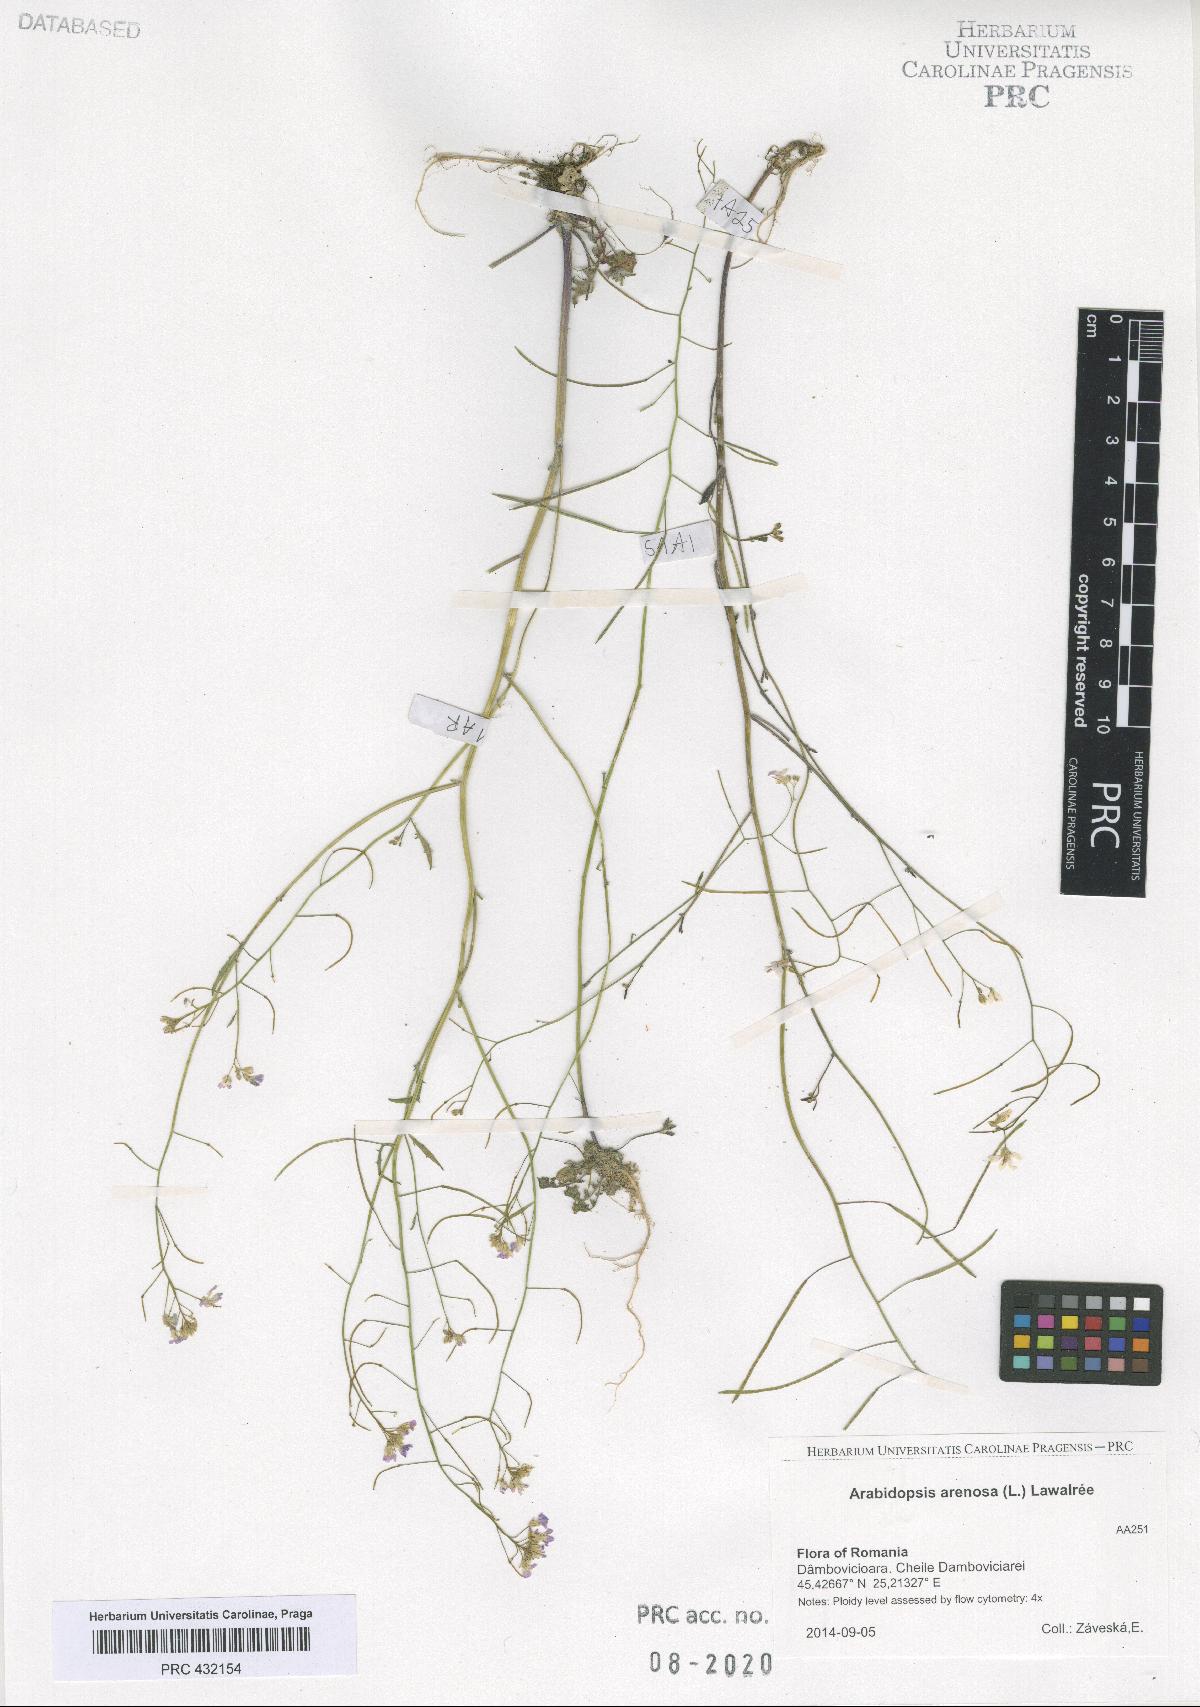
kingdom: Plantae
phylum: Tracheophyta
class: Magnoliopsida
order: Brassicales
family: Brassicaceae
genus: Arabidopsis
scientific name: Arabidopsis arenosa
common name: Sand rock-cress
